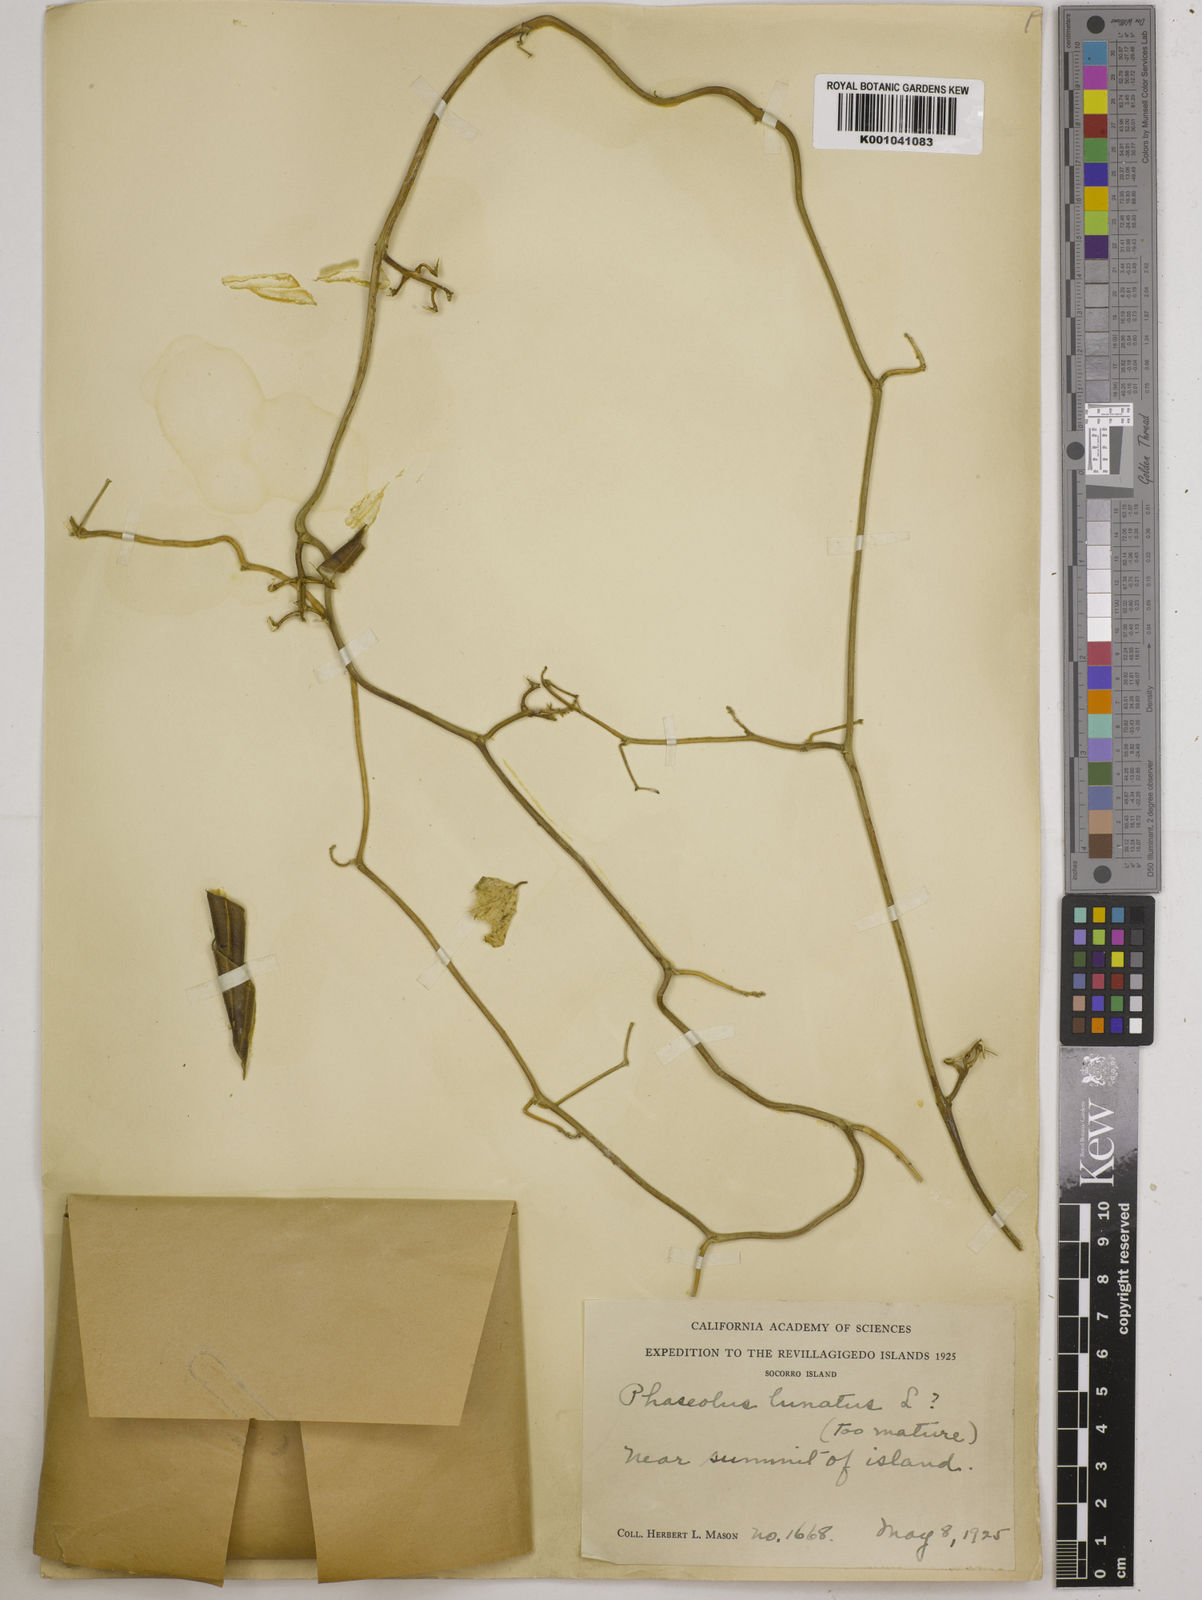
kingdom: Plantae
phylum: Tracheophyta
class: Magnoliopsida
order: Fabales
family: Fabaceae
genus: Phaseolus
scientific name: Phaseolus lunatus
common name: Sieva bean
